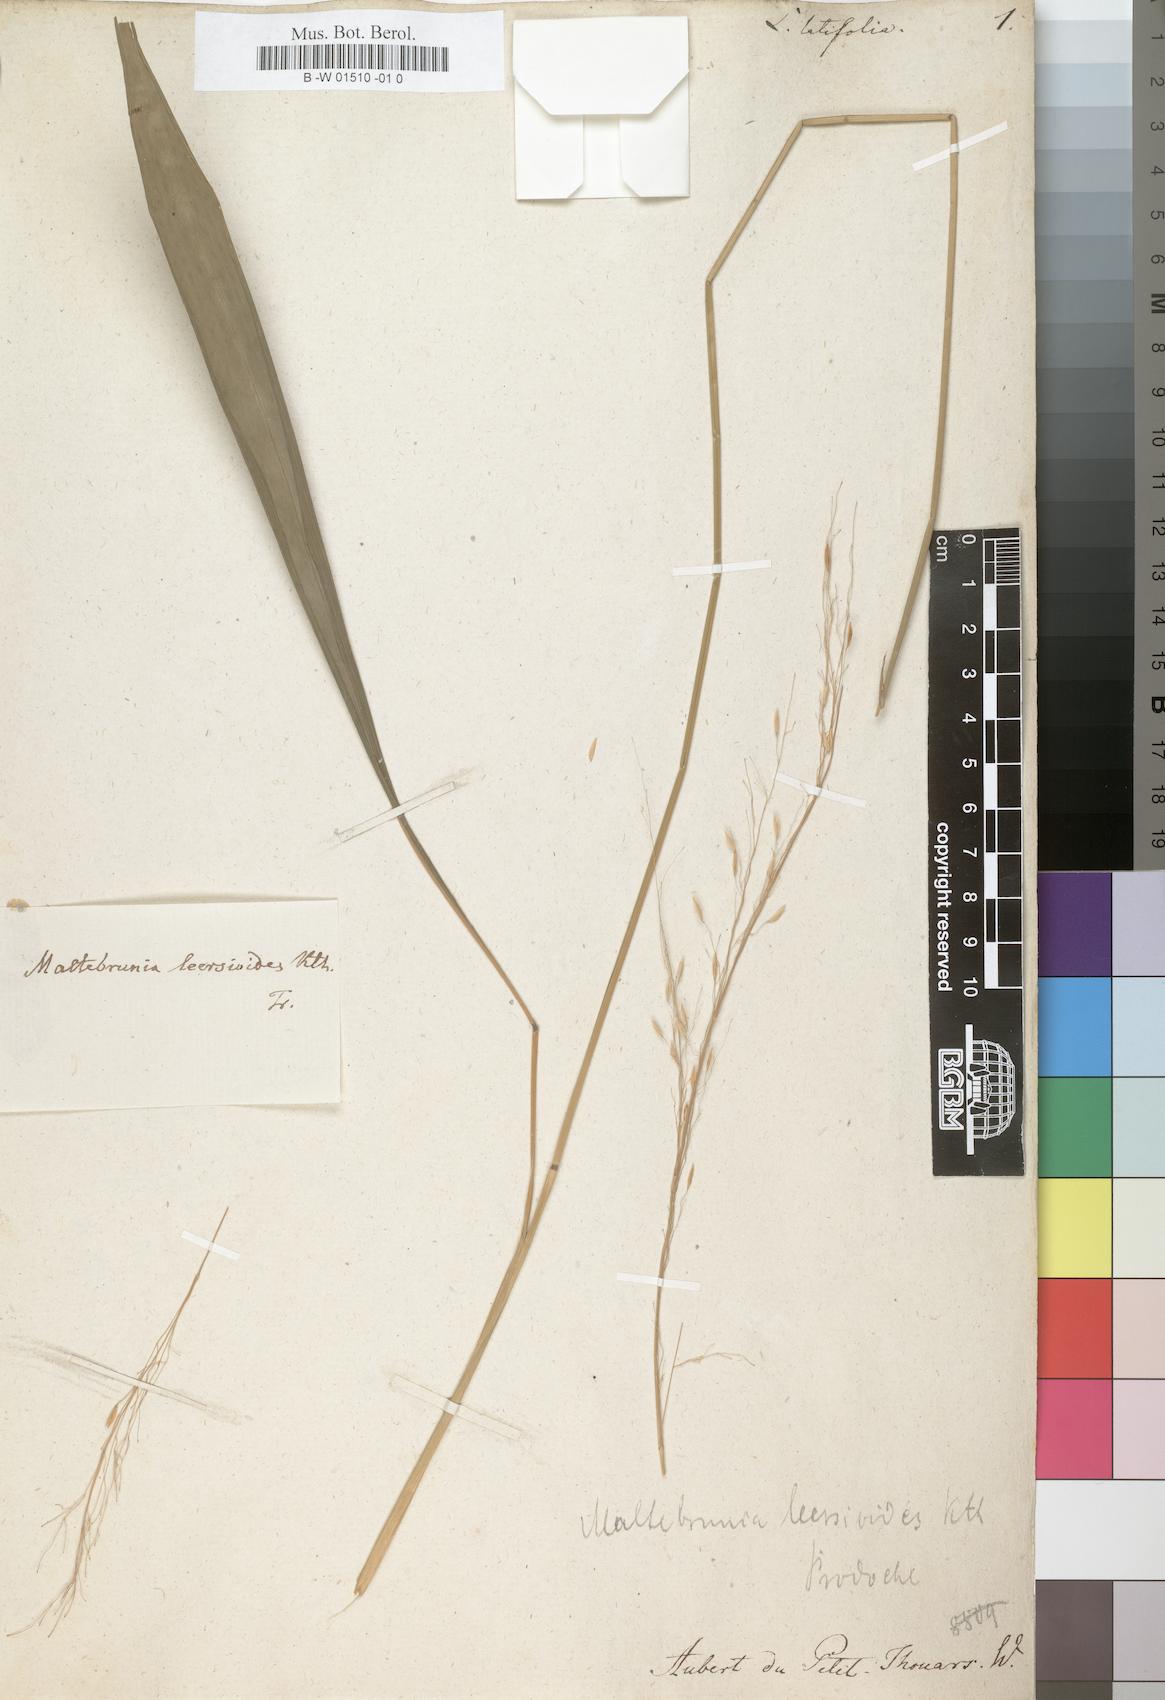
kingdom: Plantae
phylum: Tracheophyta
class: Liliopsida
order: Poales
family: Poaceae
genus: Maltebrunia
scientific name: Maltebrunia leersioides
